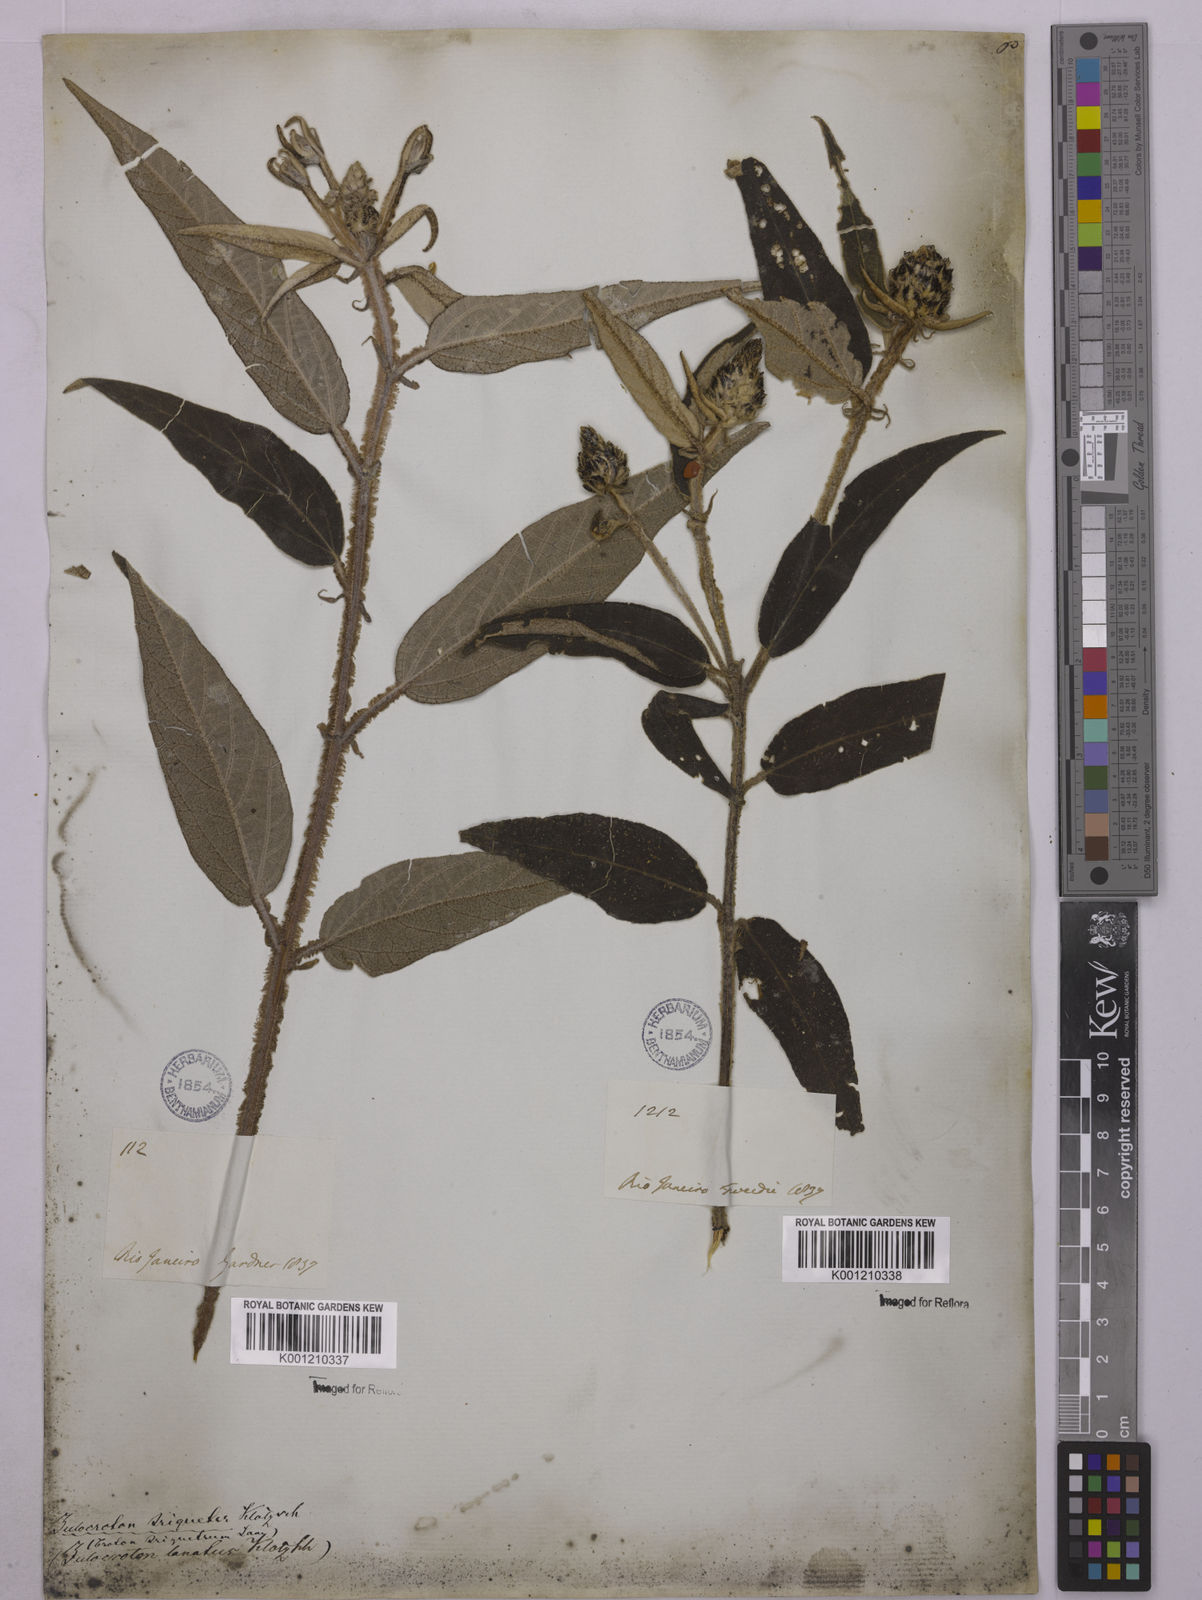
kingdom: Plantae
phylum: Tracheophyta
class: Magnoliopsida
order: Malpighiales
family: Euphorbiaceae
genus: Croton
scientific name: Croton gnaphaloides
